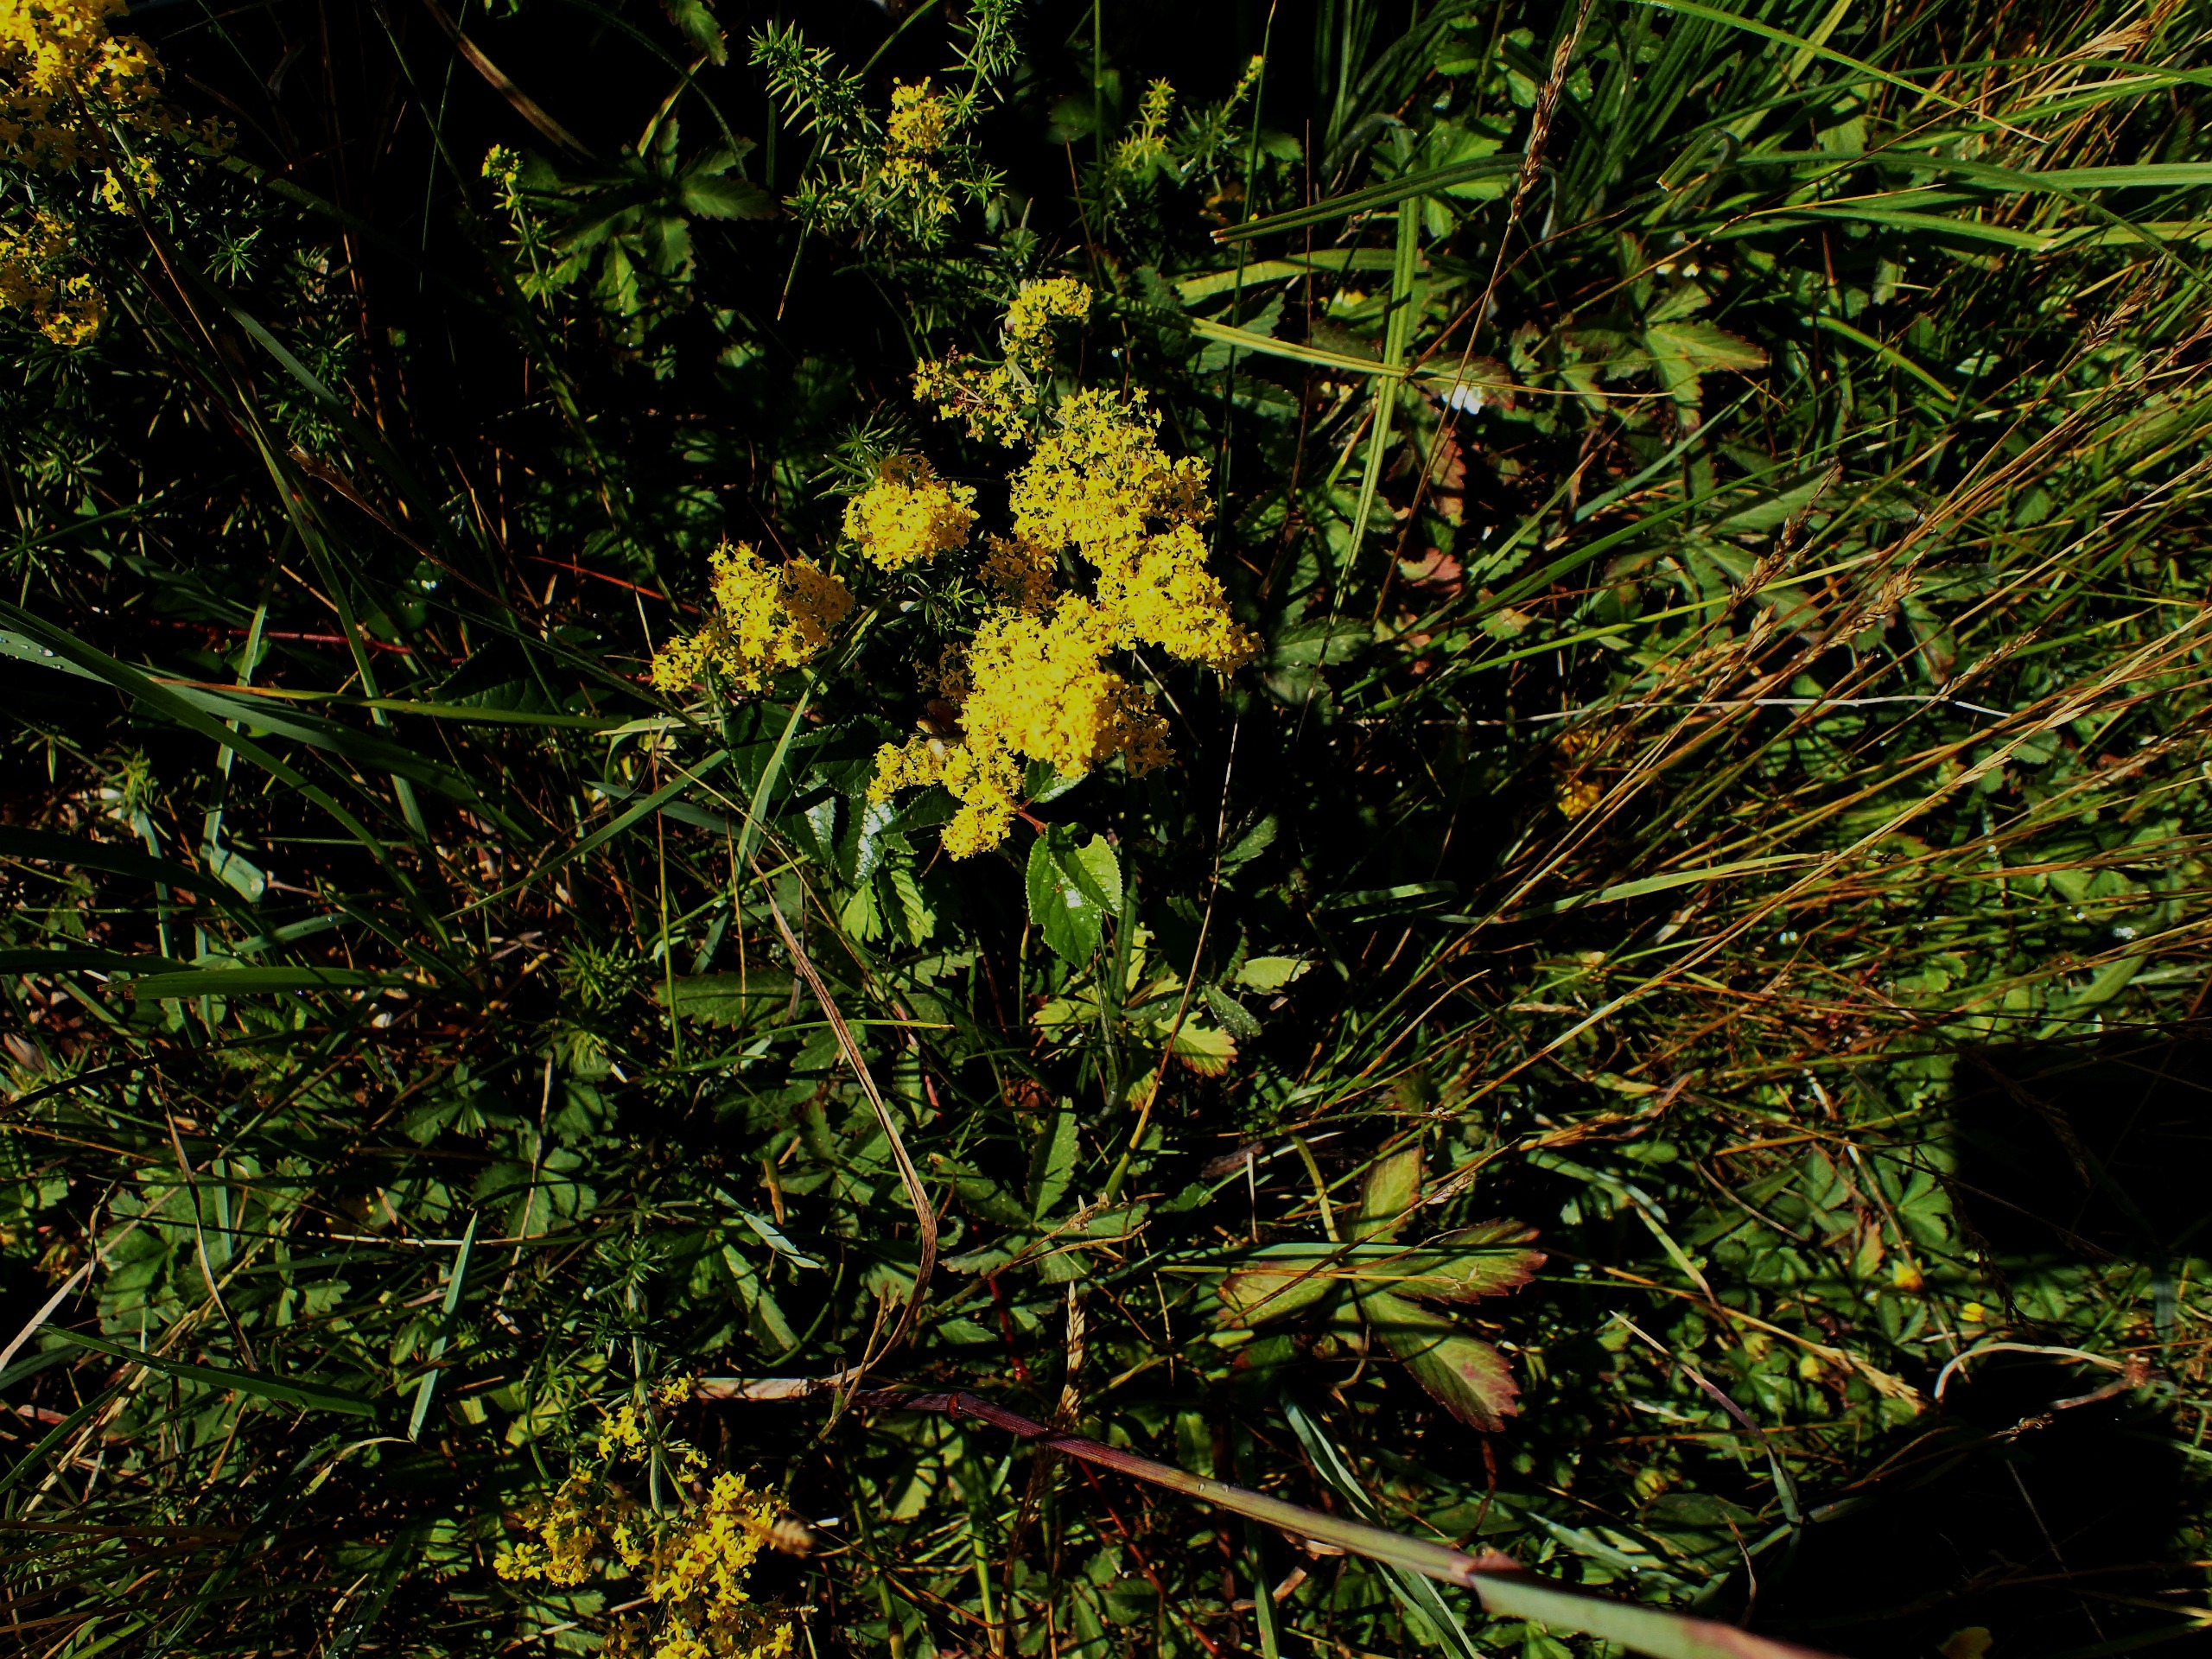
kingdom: Plantae
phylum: Tracheophyta
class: Magnoliopsida
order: Gentianales
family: Rubiaceae
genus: Galium
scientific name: Galium verum
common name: Gul snerre
